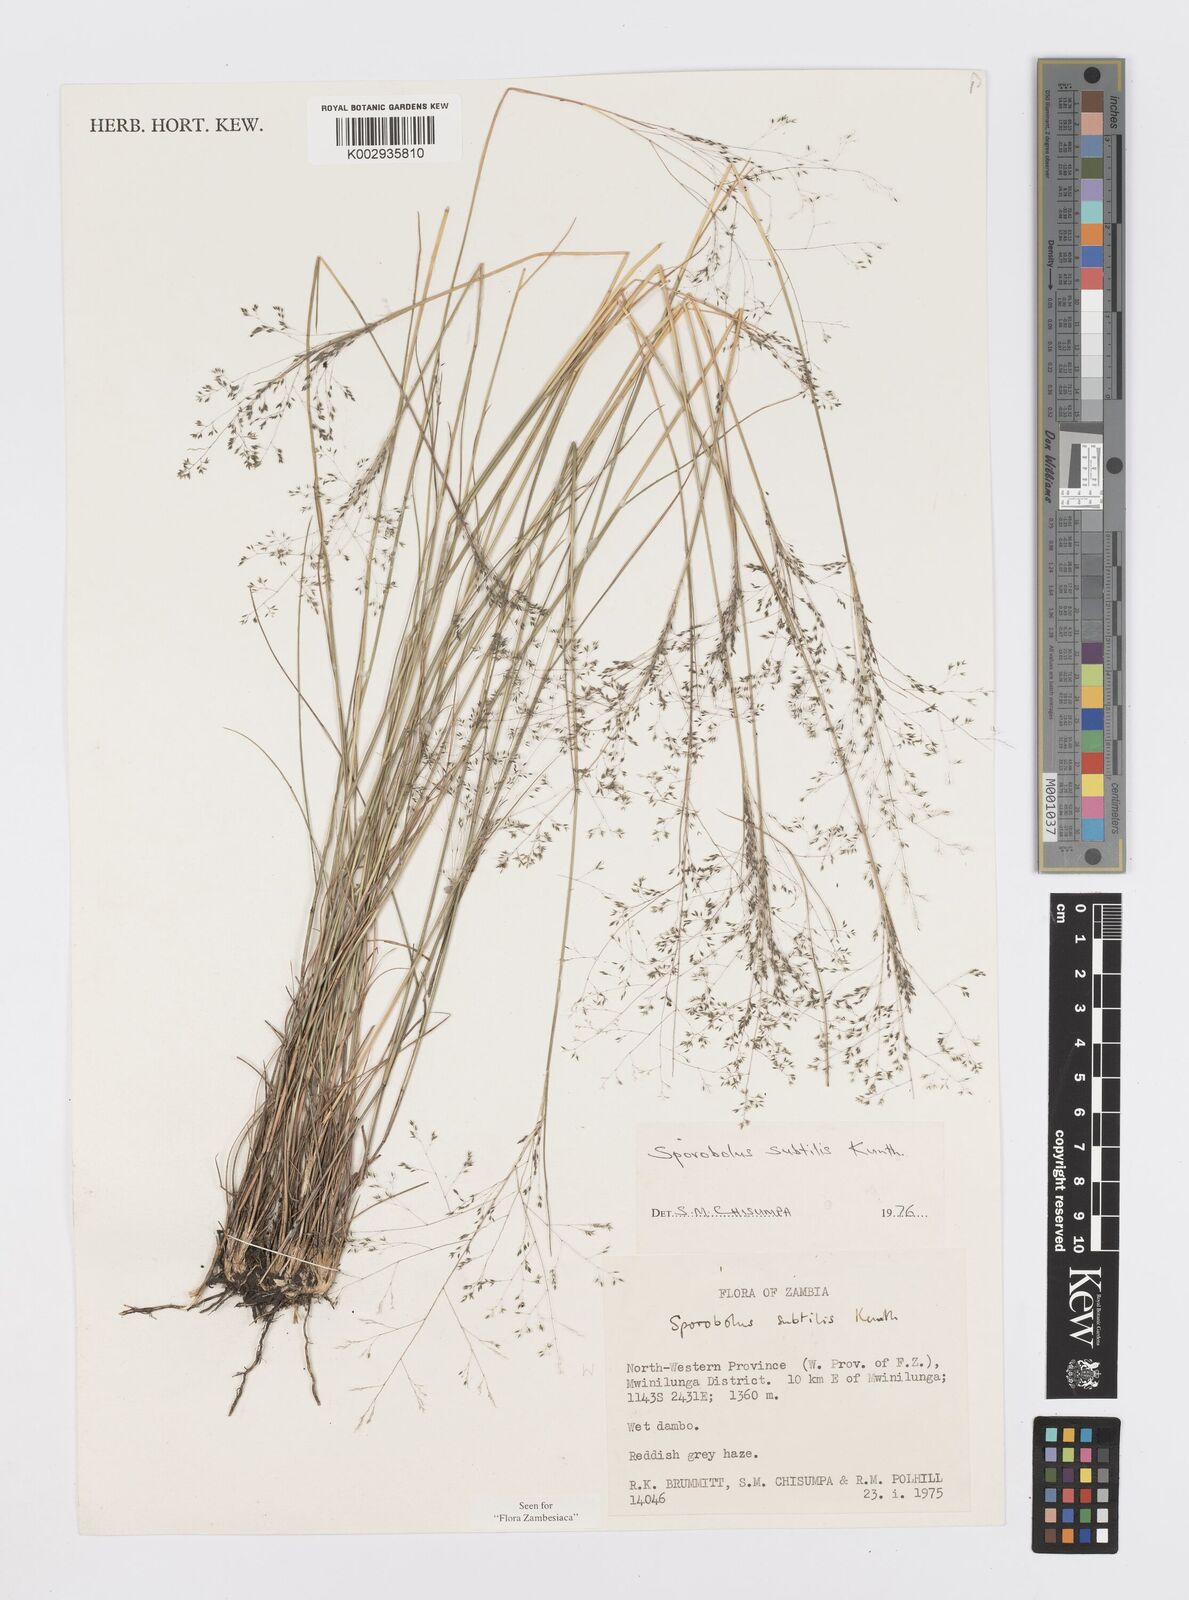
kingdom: Plantae
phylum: Tracheophyta
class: Liliopsida
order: Poales
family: Poaceae
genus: Sporobolus
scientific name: Sporobolus subtilis
